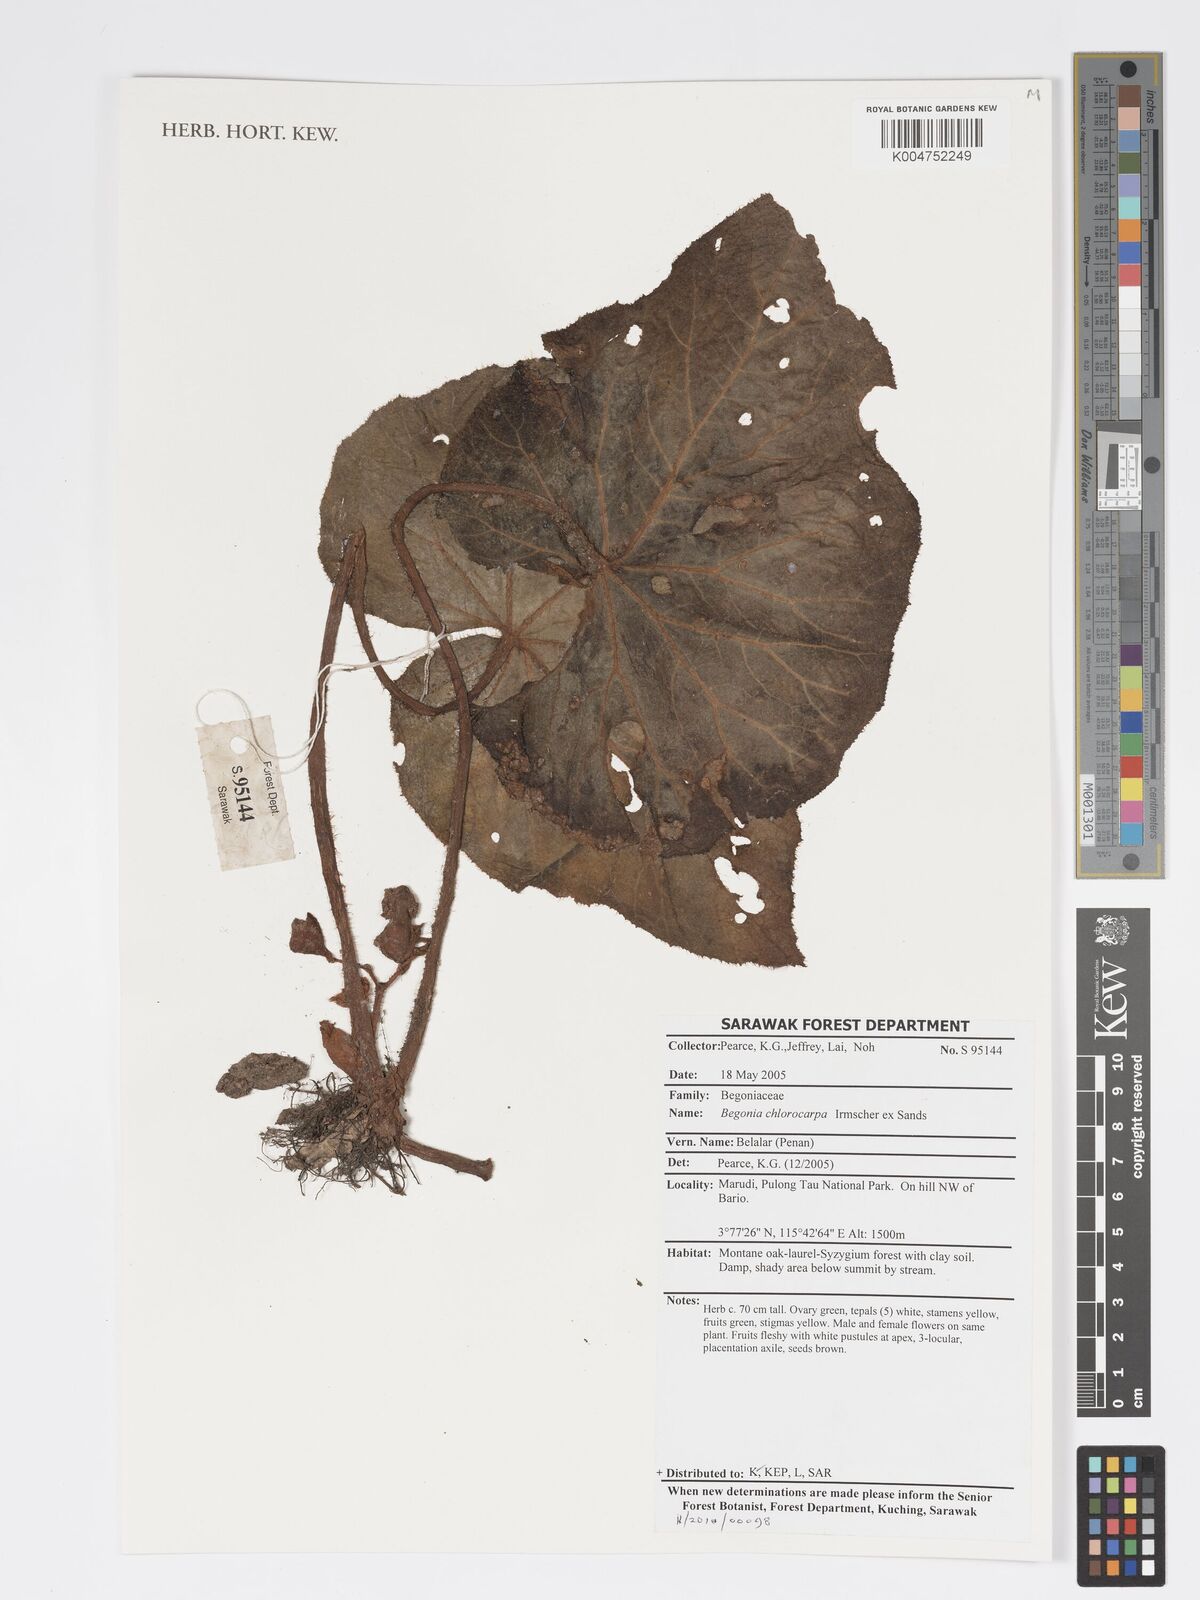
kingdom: Plantae
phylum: Tracheophyta
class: Magnoliopsida
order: Cucurbitales
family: Begoniaceae
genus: Begonia
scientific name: Begonia chlorocarpa
